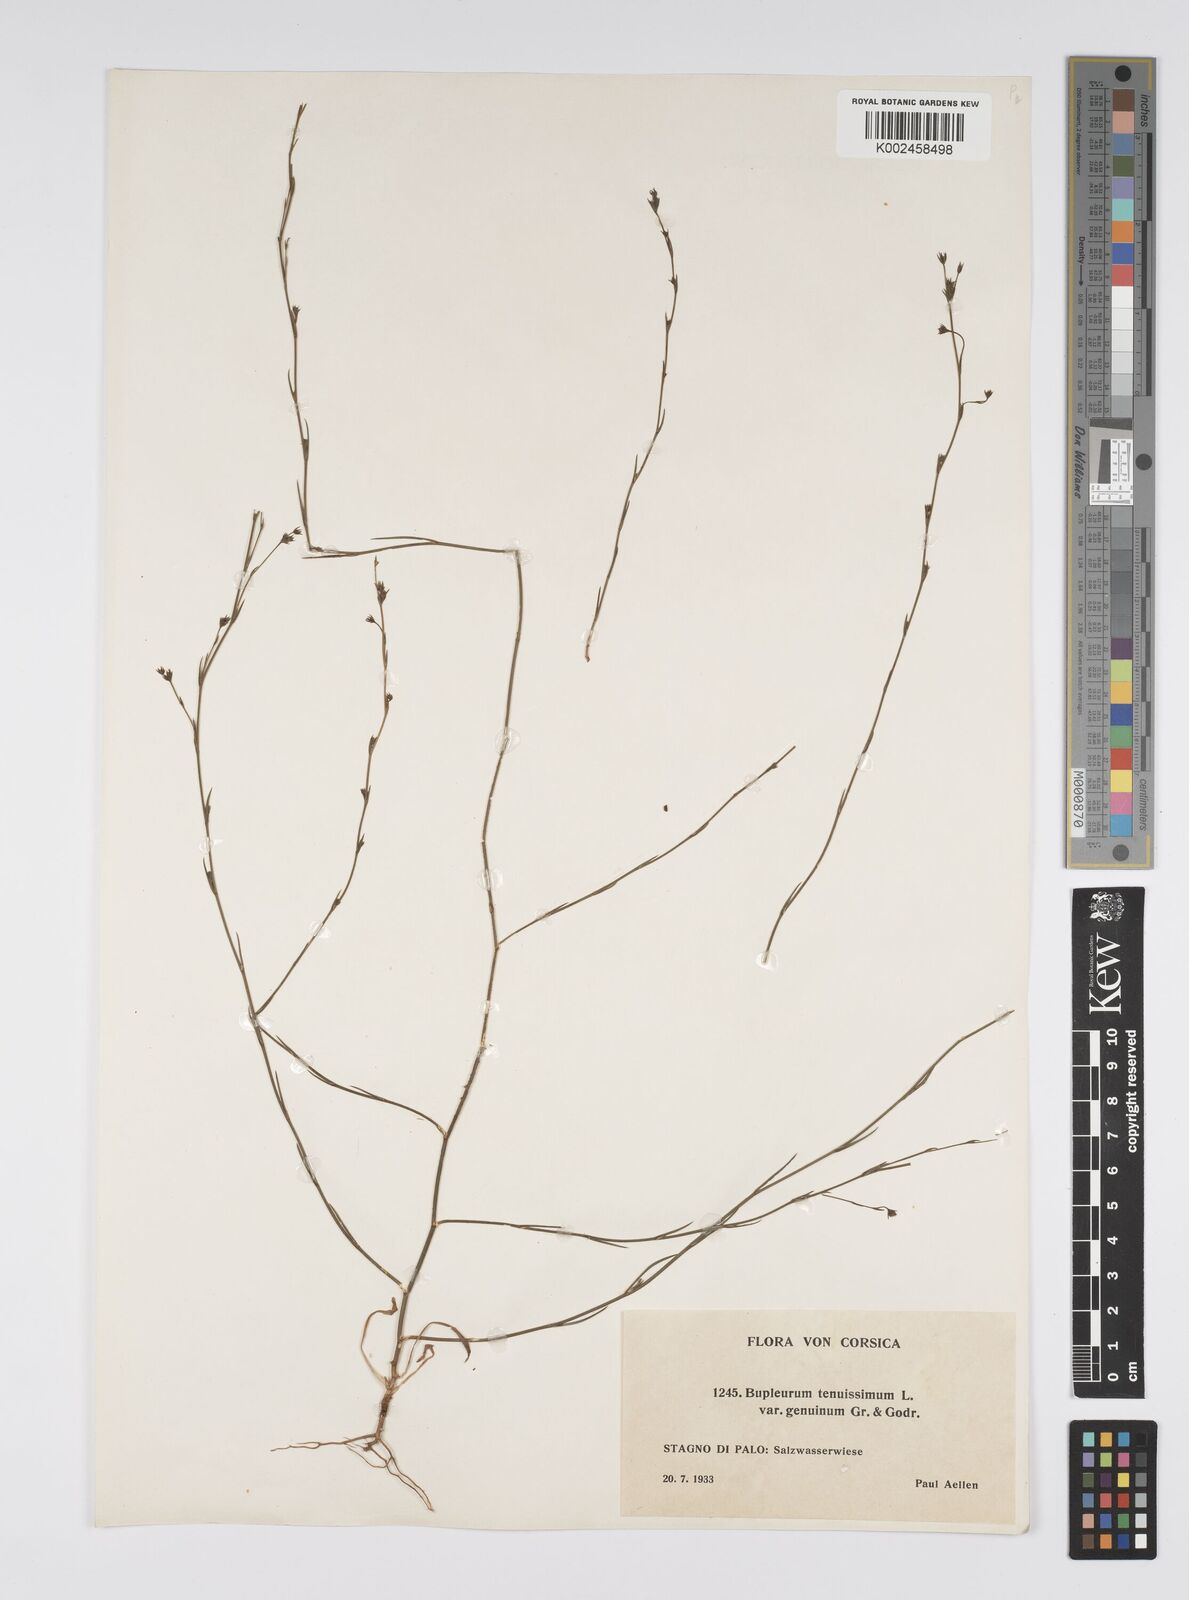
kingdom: Plantae
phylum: Tracheophyta
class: Magnoliopsida
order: Apiales
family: Apiaceae
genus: Bupleurum
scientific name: Bupleurum tenuissimum
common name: Slender hare's-ear
